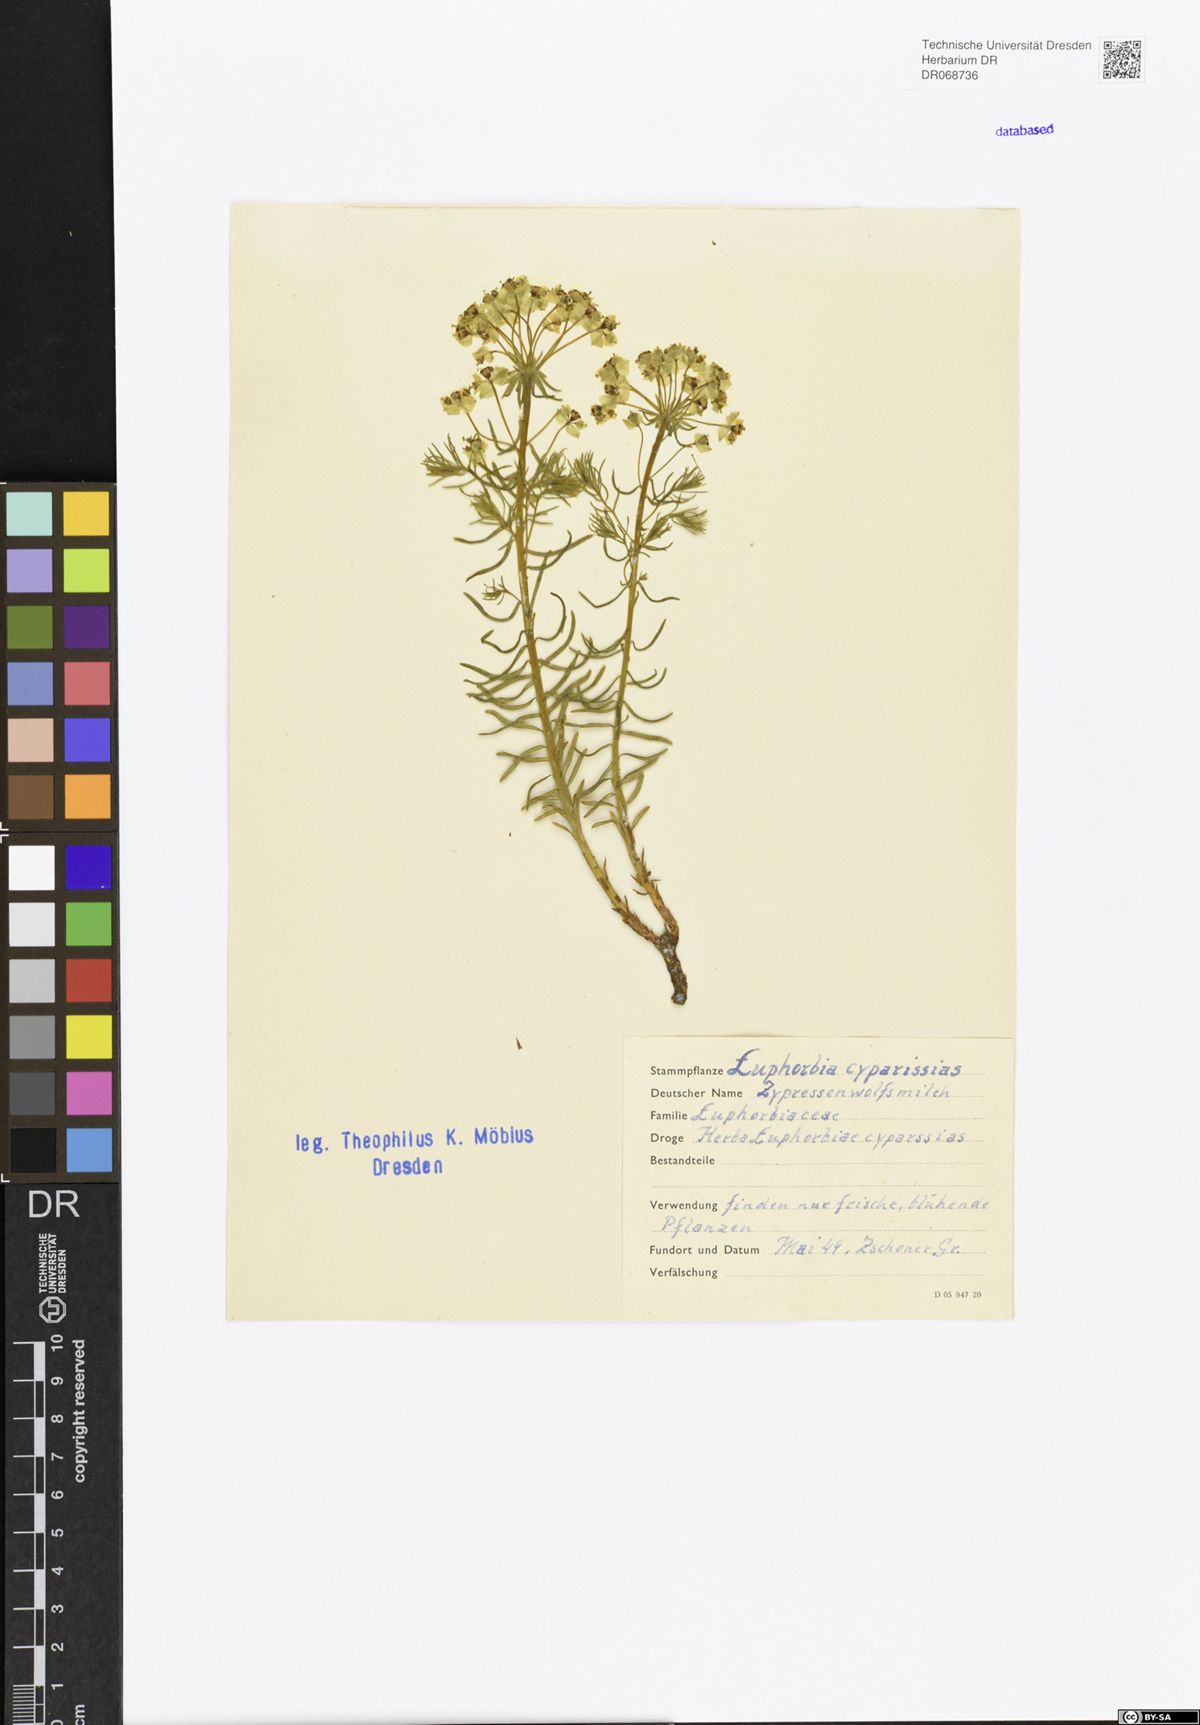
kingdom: Plantae
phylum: Tracheophyta
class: Magnoliopsida
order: Malpighiales
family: Euphorbiaceae
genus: Euphorbia
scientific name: Euphorbia cyparissias
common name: Cypress spurge
